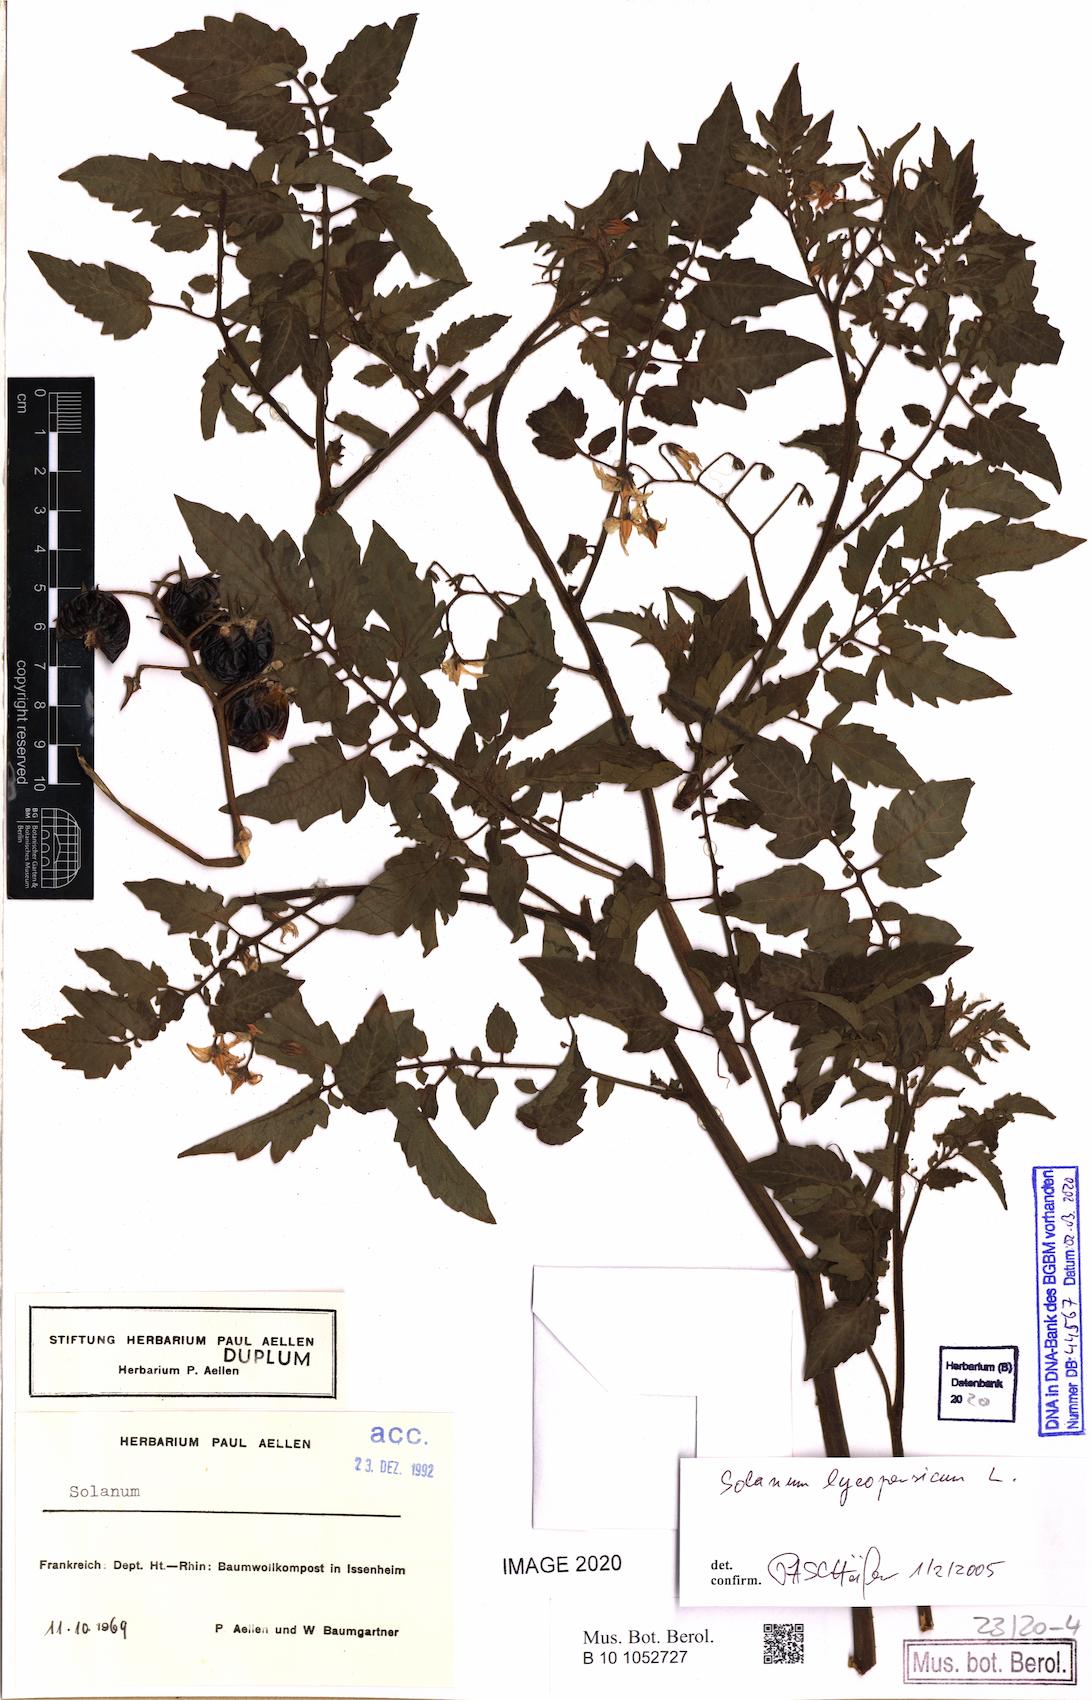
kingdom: Plantae
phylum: Tracheophyta
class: Magnoliopsida
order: Solanales
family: Solanaceae
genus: Solanum
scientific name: Solanum lycopersicum
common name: Garden tomato
